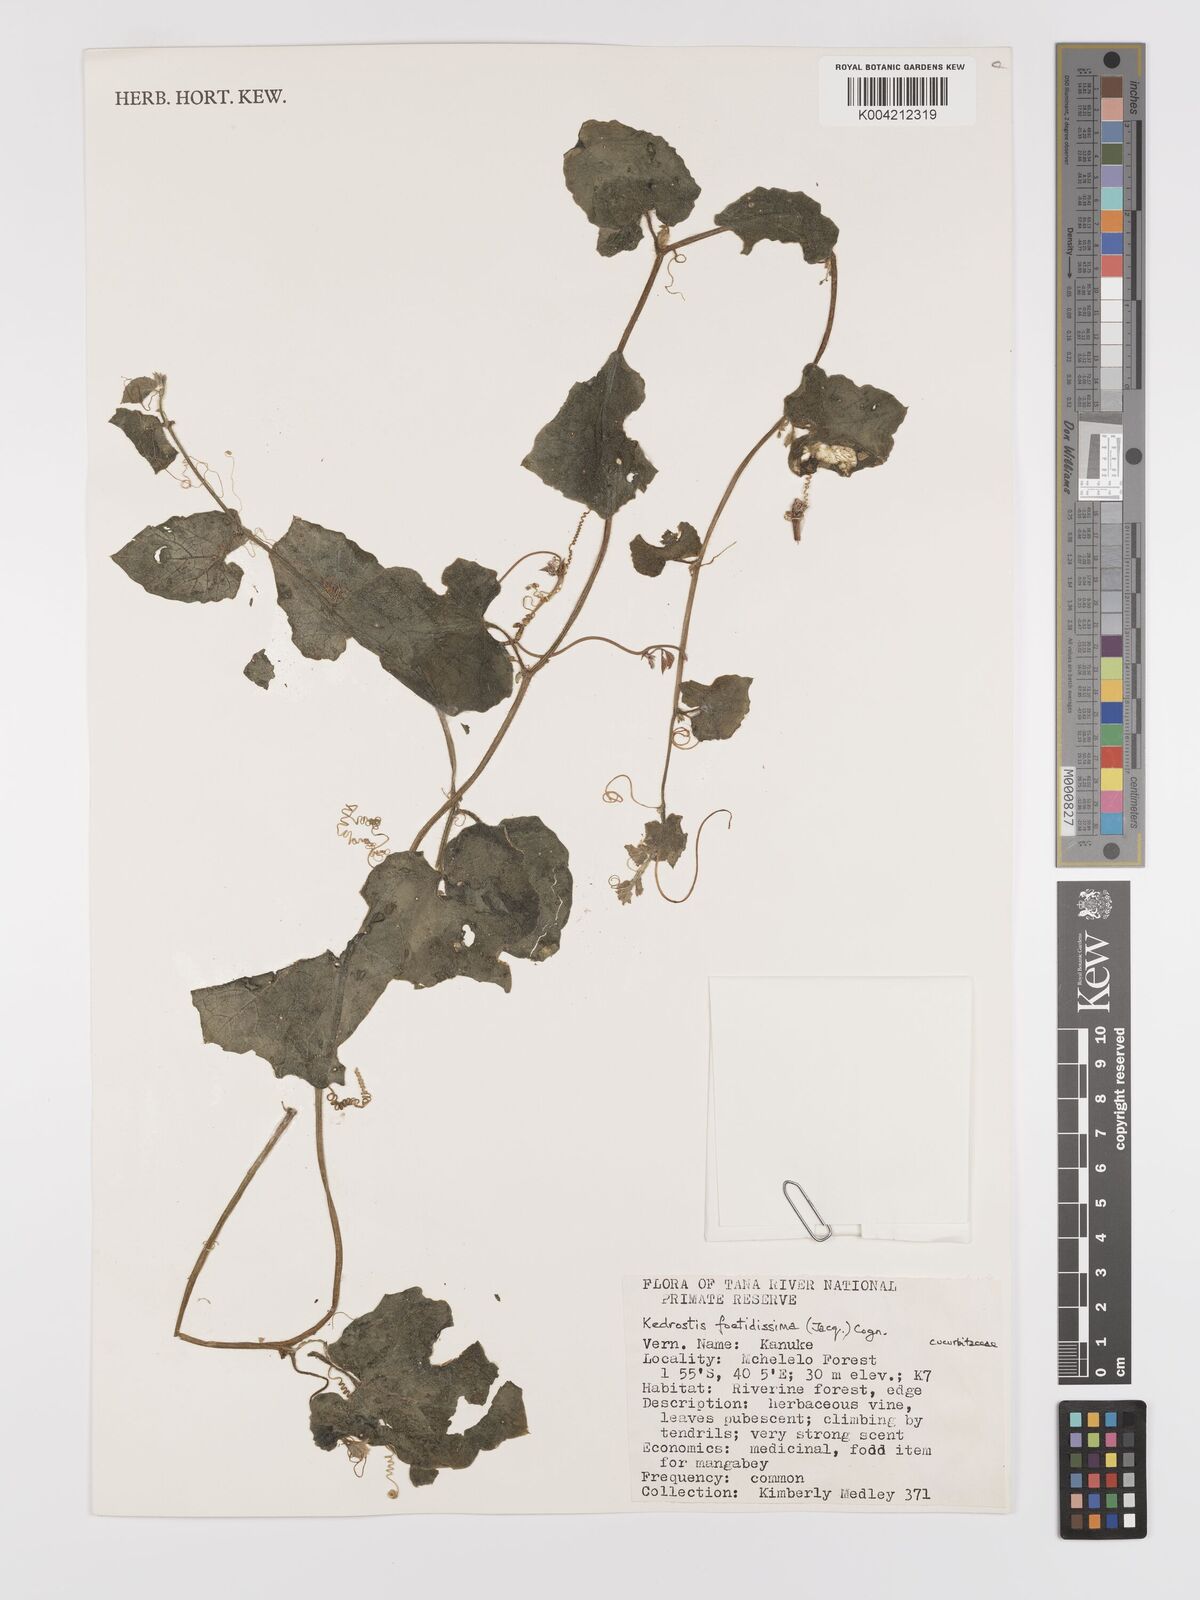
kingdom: Plantae
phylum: Tracheophyta
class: Magnoliopsida
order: Cucurbitales
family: Cucurbitaceae
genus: Kedrostis
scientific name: Kedrostis foetidissima
